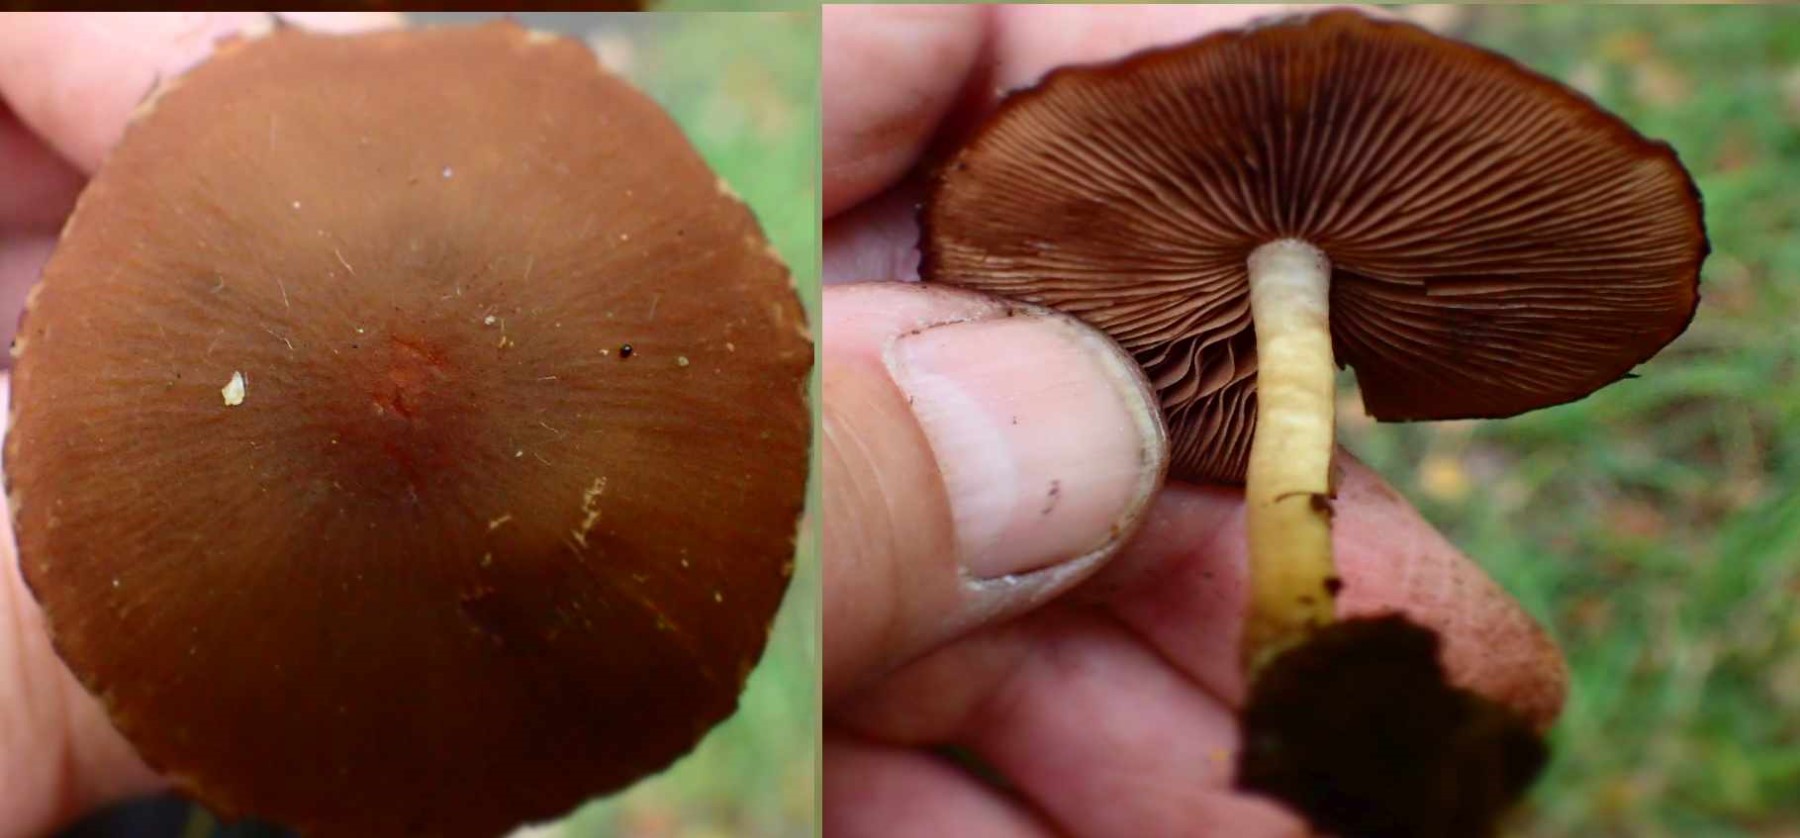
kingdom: Fungi
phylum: Basidiomycota
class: Agaricomycetes
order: Agaricales
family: Psathyrellaceae
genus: Psathyrella
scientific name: Psathyrella
